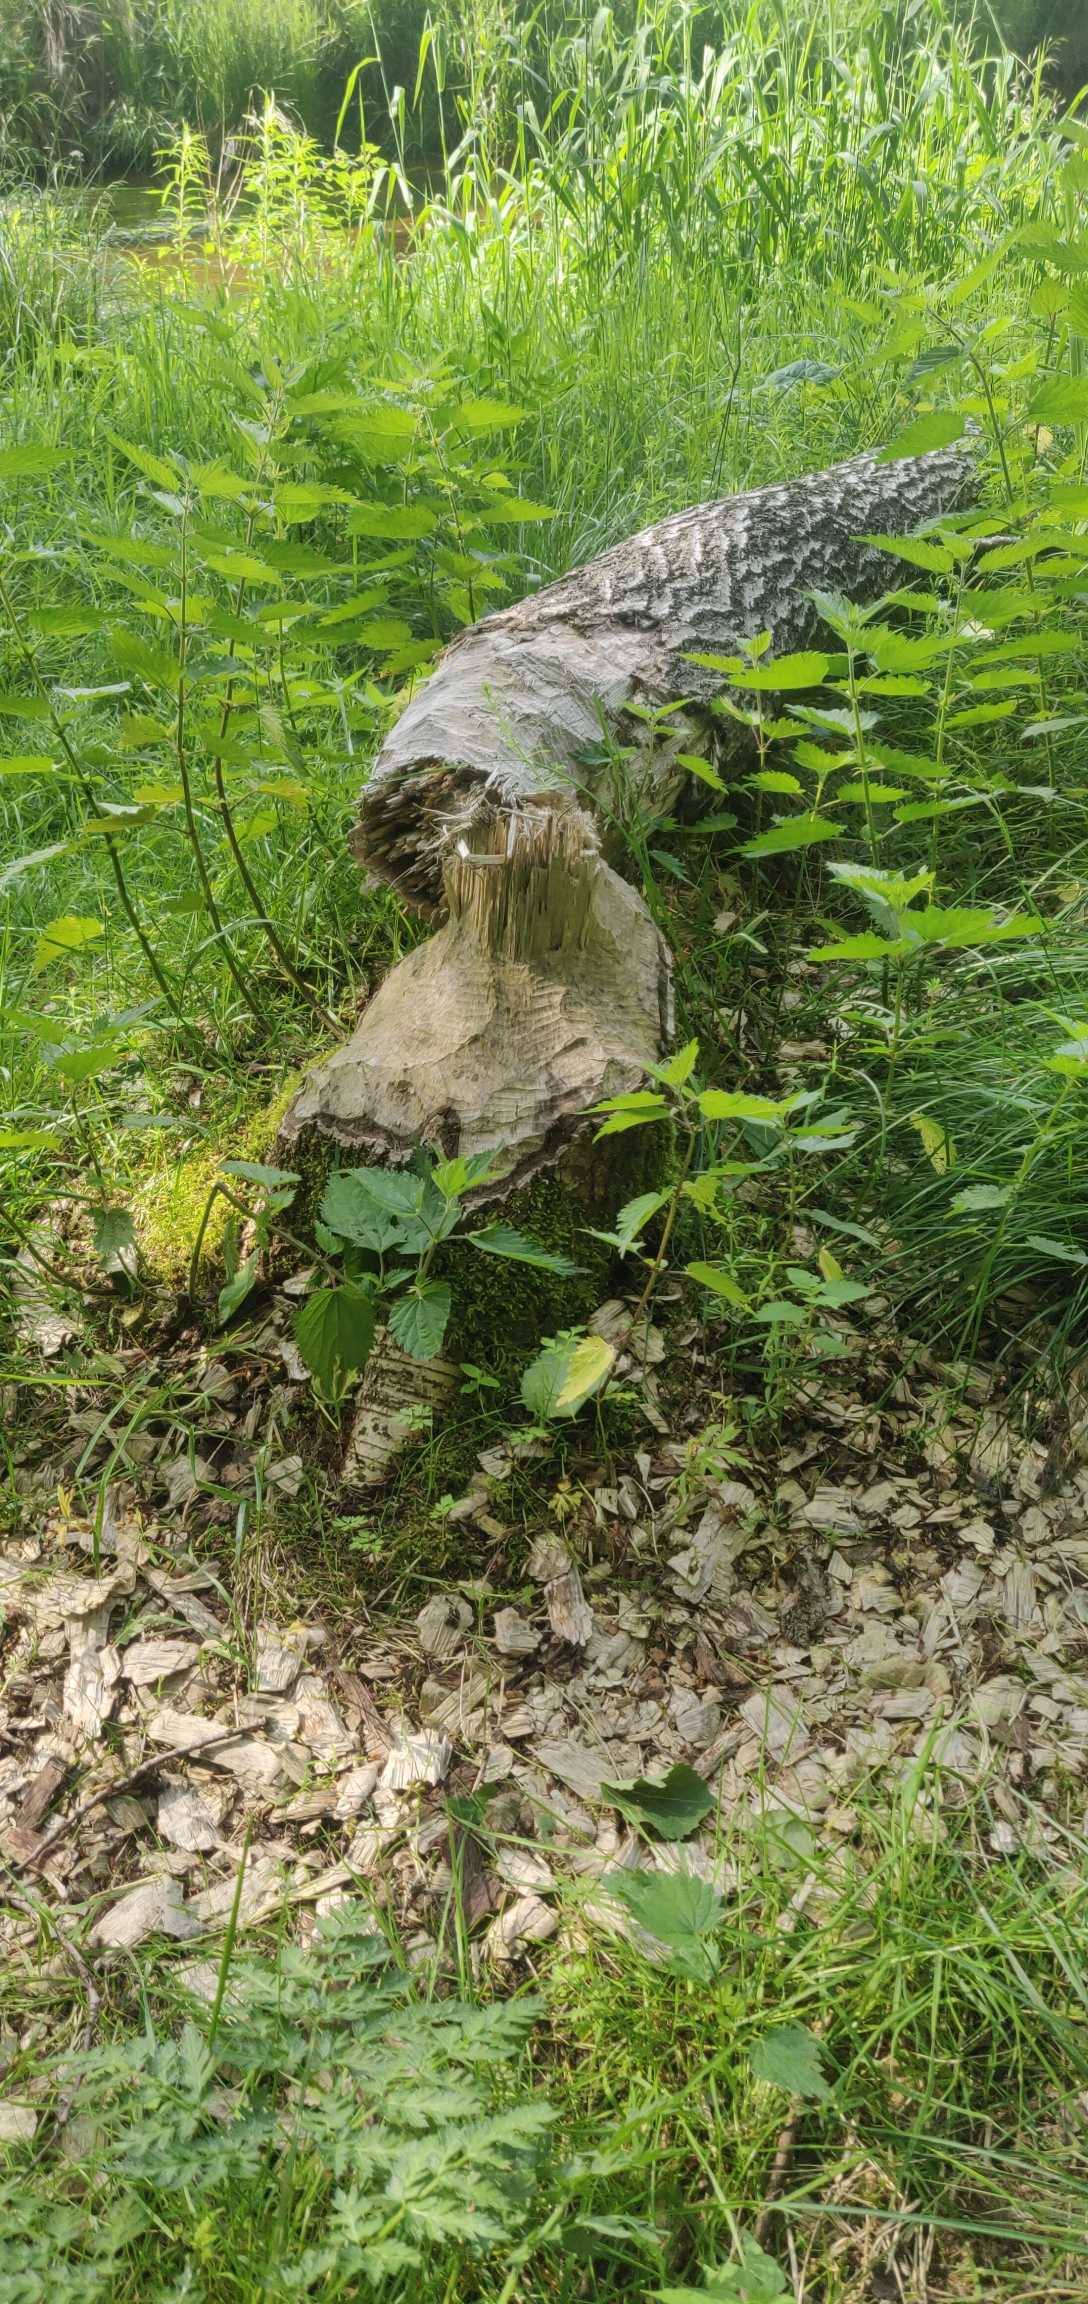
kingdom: Animalia
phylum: Chordata
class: Mammalia
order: Rodentia
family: Castoridae
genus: Castor
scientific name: Castor fiber
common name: Bæver
